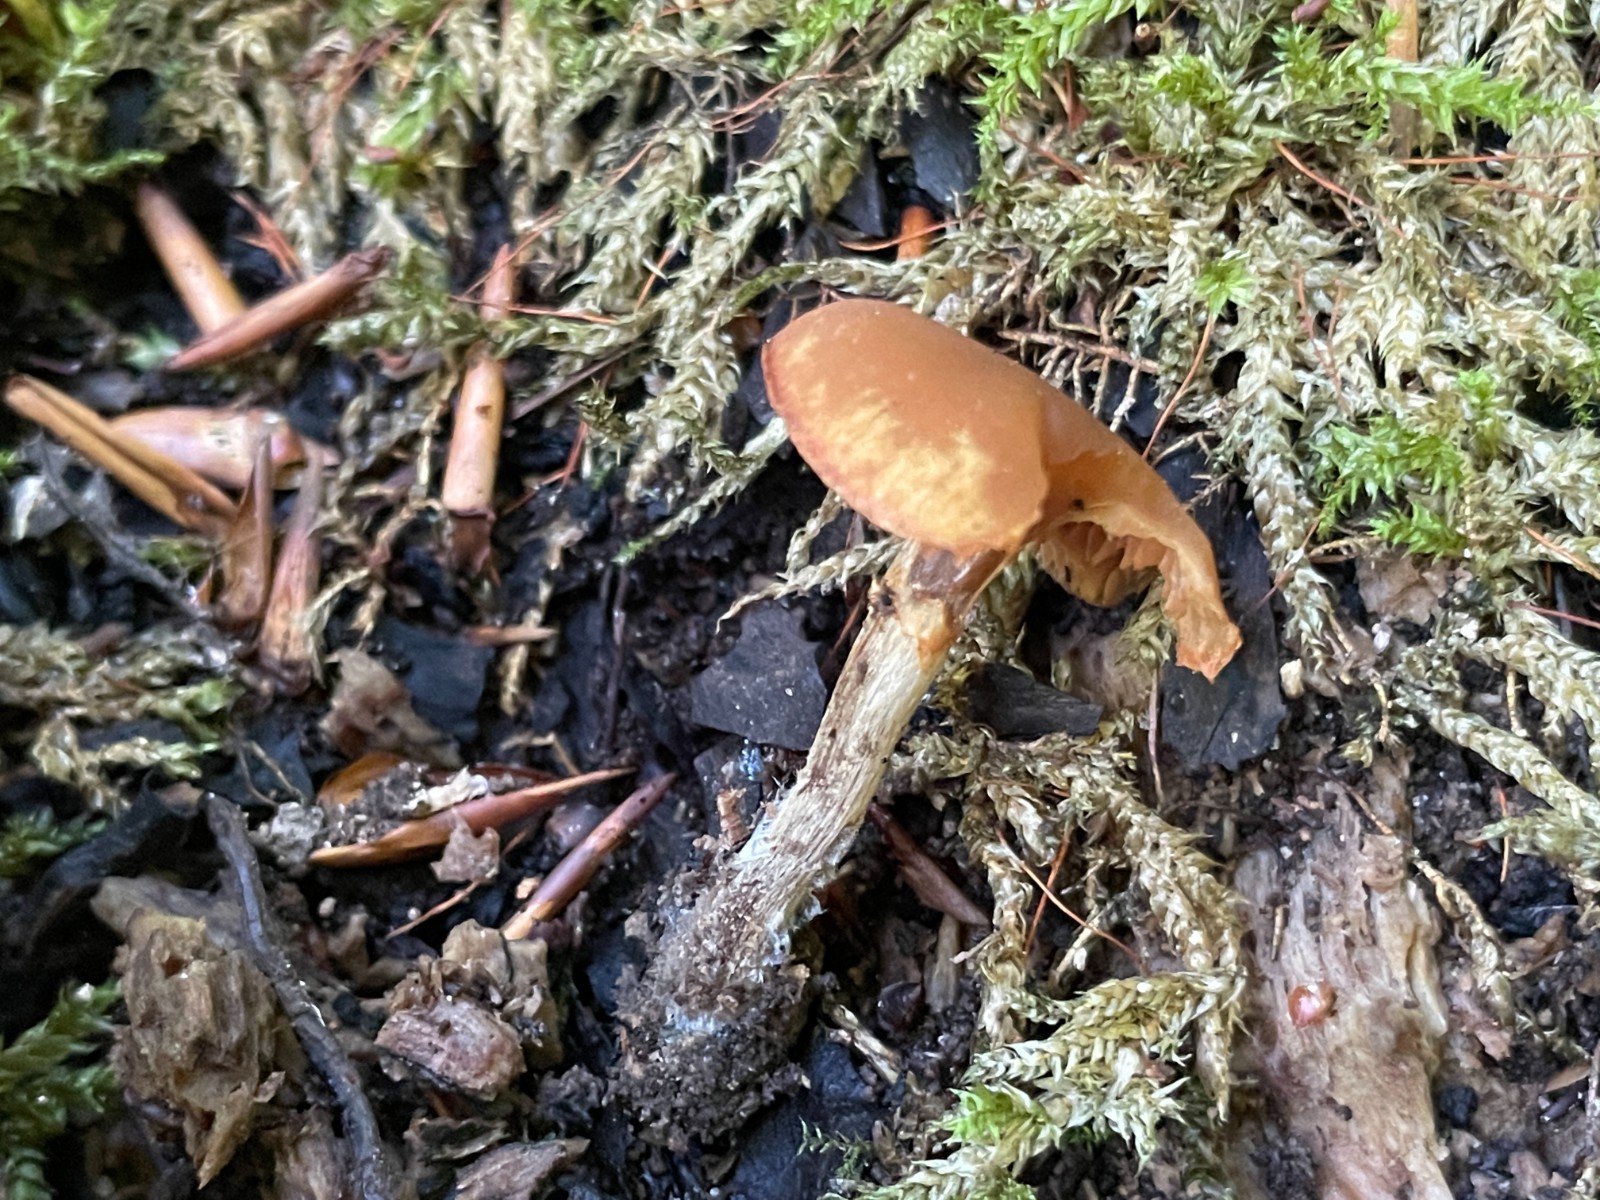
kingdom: Fungi
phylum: Basidiomycota
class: Agaricomycetes
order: Agaricales
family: Hymenogastraceae
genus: Galerina
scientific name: Galerina marginata
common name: randbæltet hjelmhat
